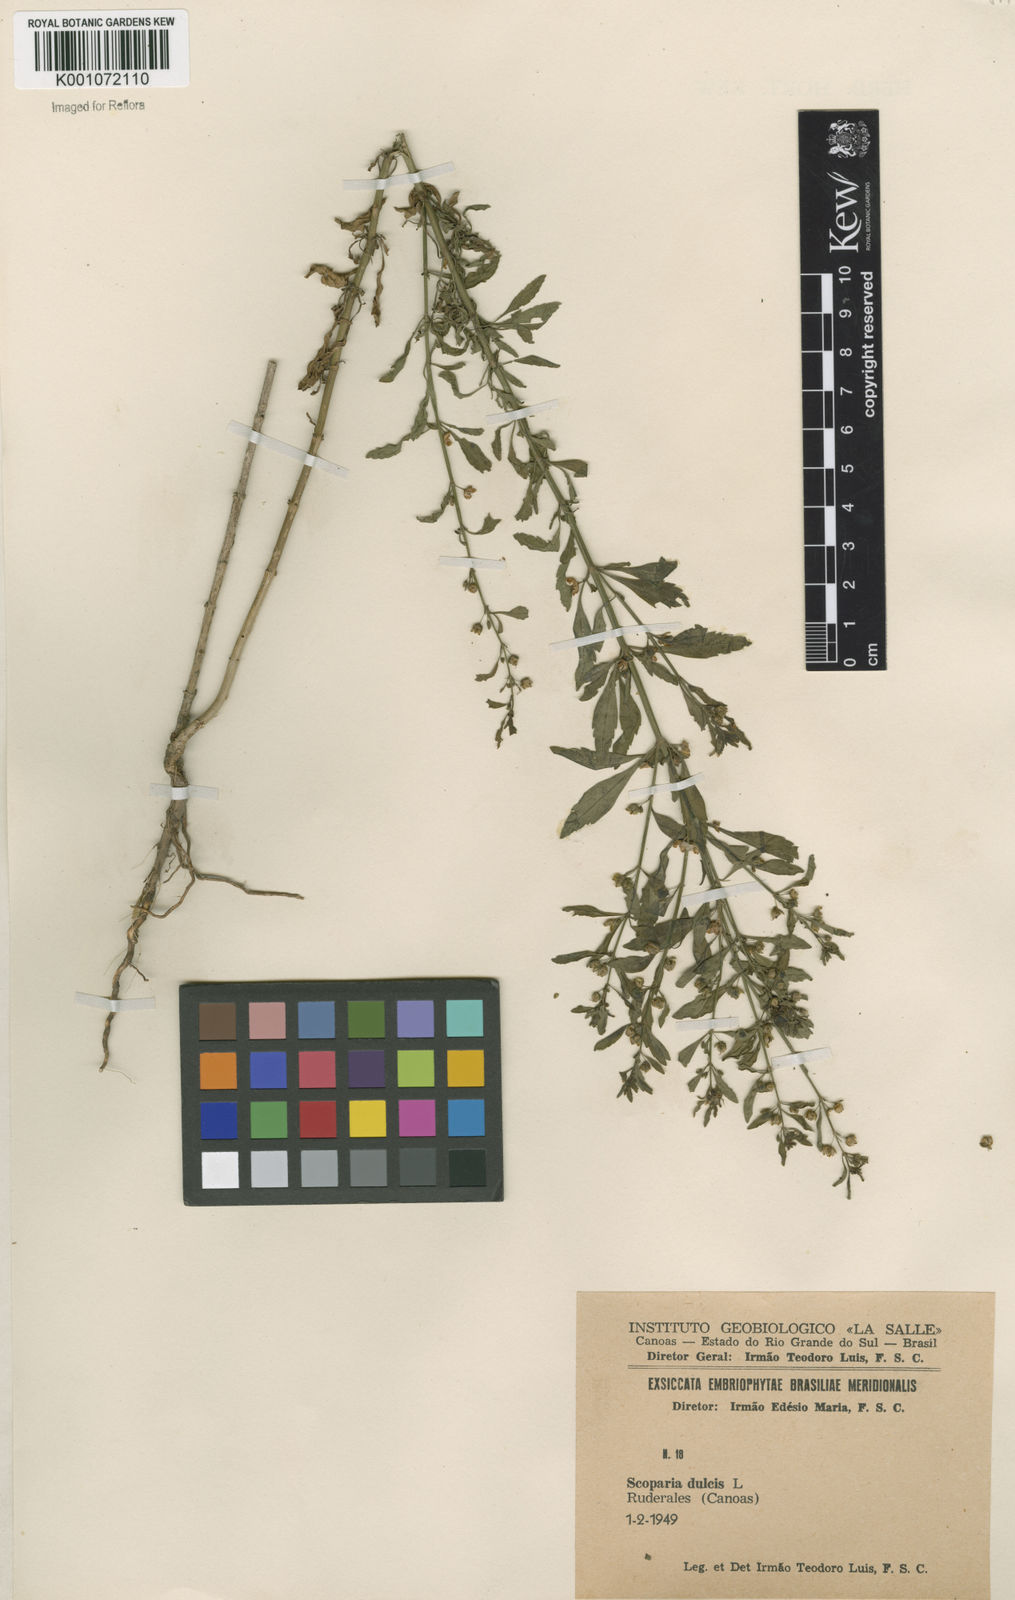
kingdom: Plantae
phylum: Tracheophyta
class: Magnoliopsida
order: Lamiales
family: Plantaginaceae
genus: Scoparia
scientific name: Scoparia dulcis
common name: Scoparia-weed
